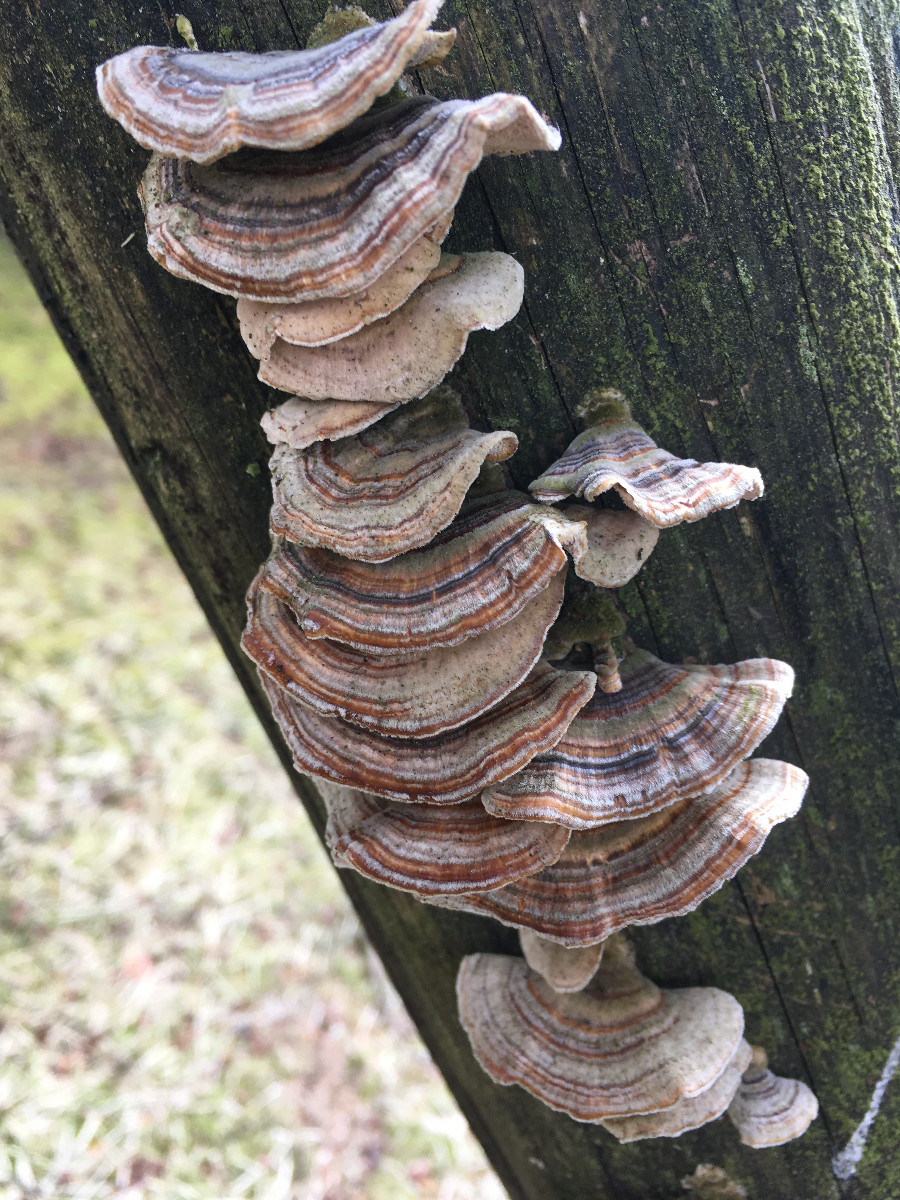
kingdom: Fungi
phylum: Basidiomycota
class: Agaricomycetes
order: Polyporales
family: Polyporaceae
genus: Trametes
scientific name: Trametes versicolor
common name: broget læderporesvamp
